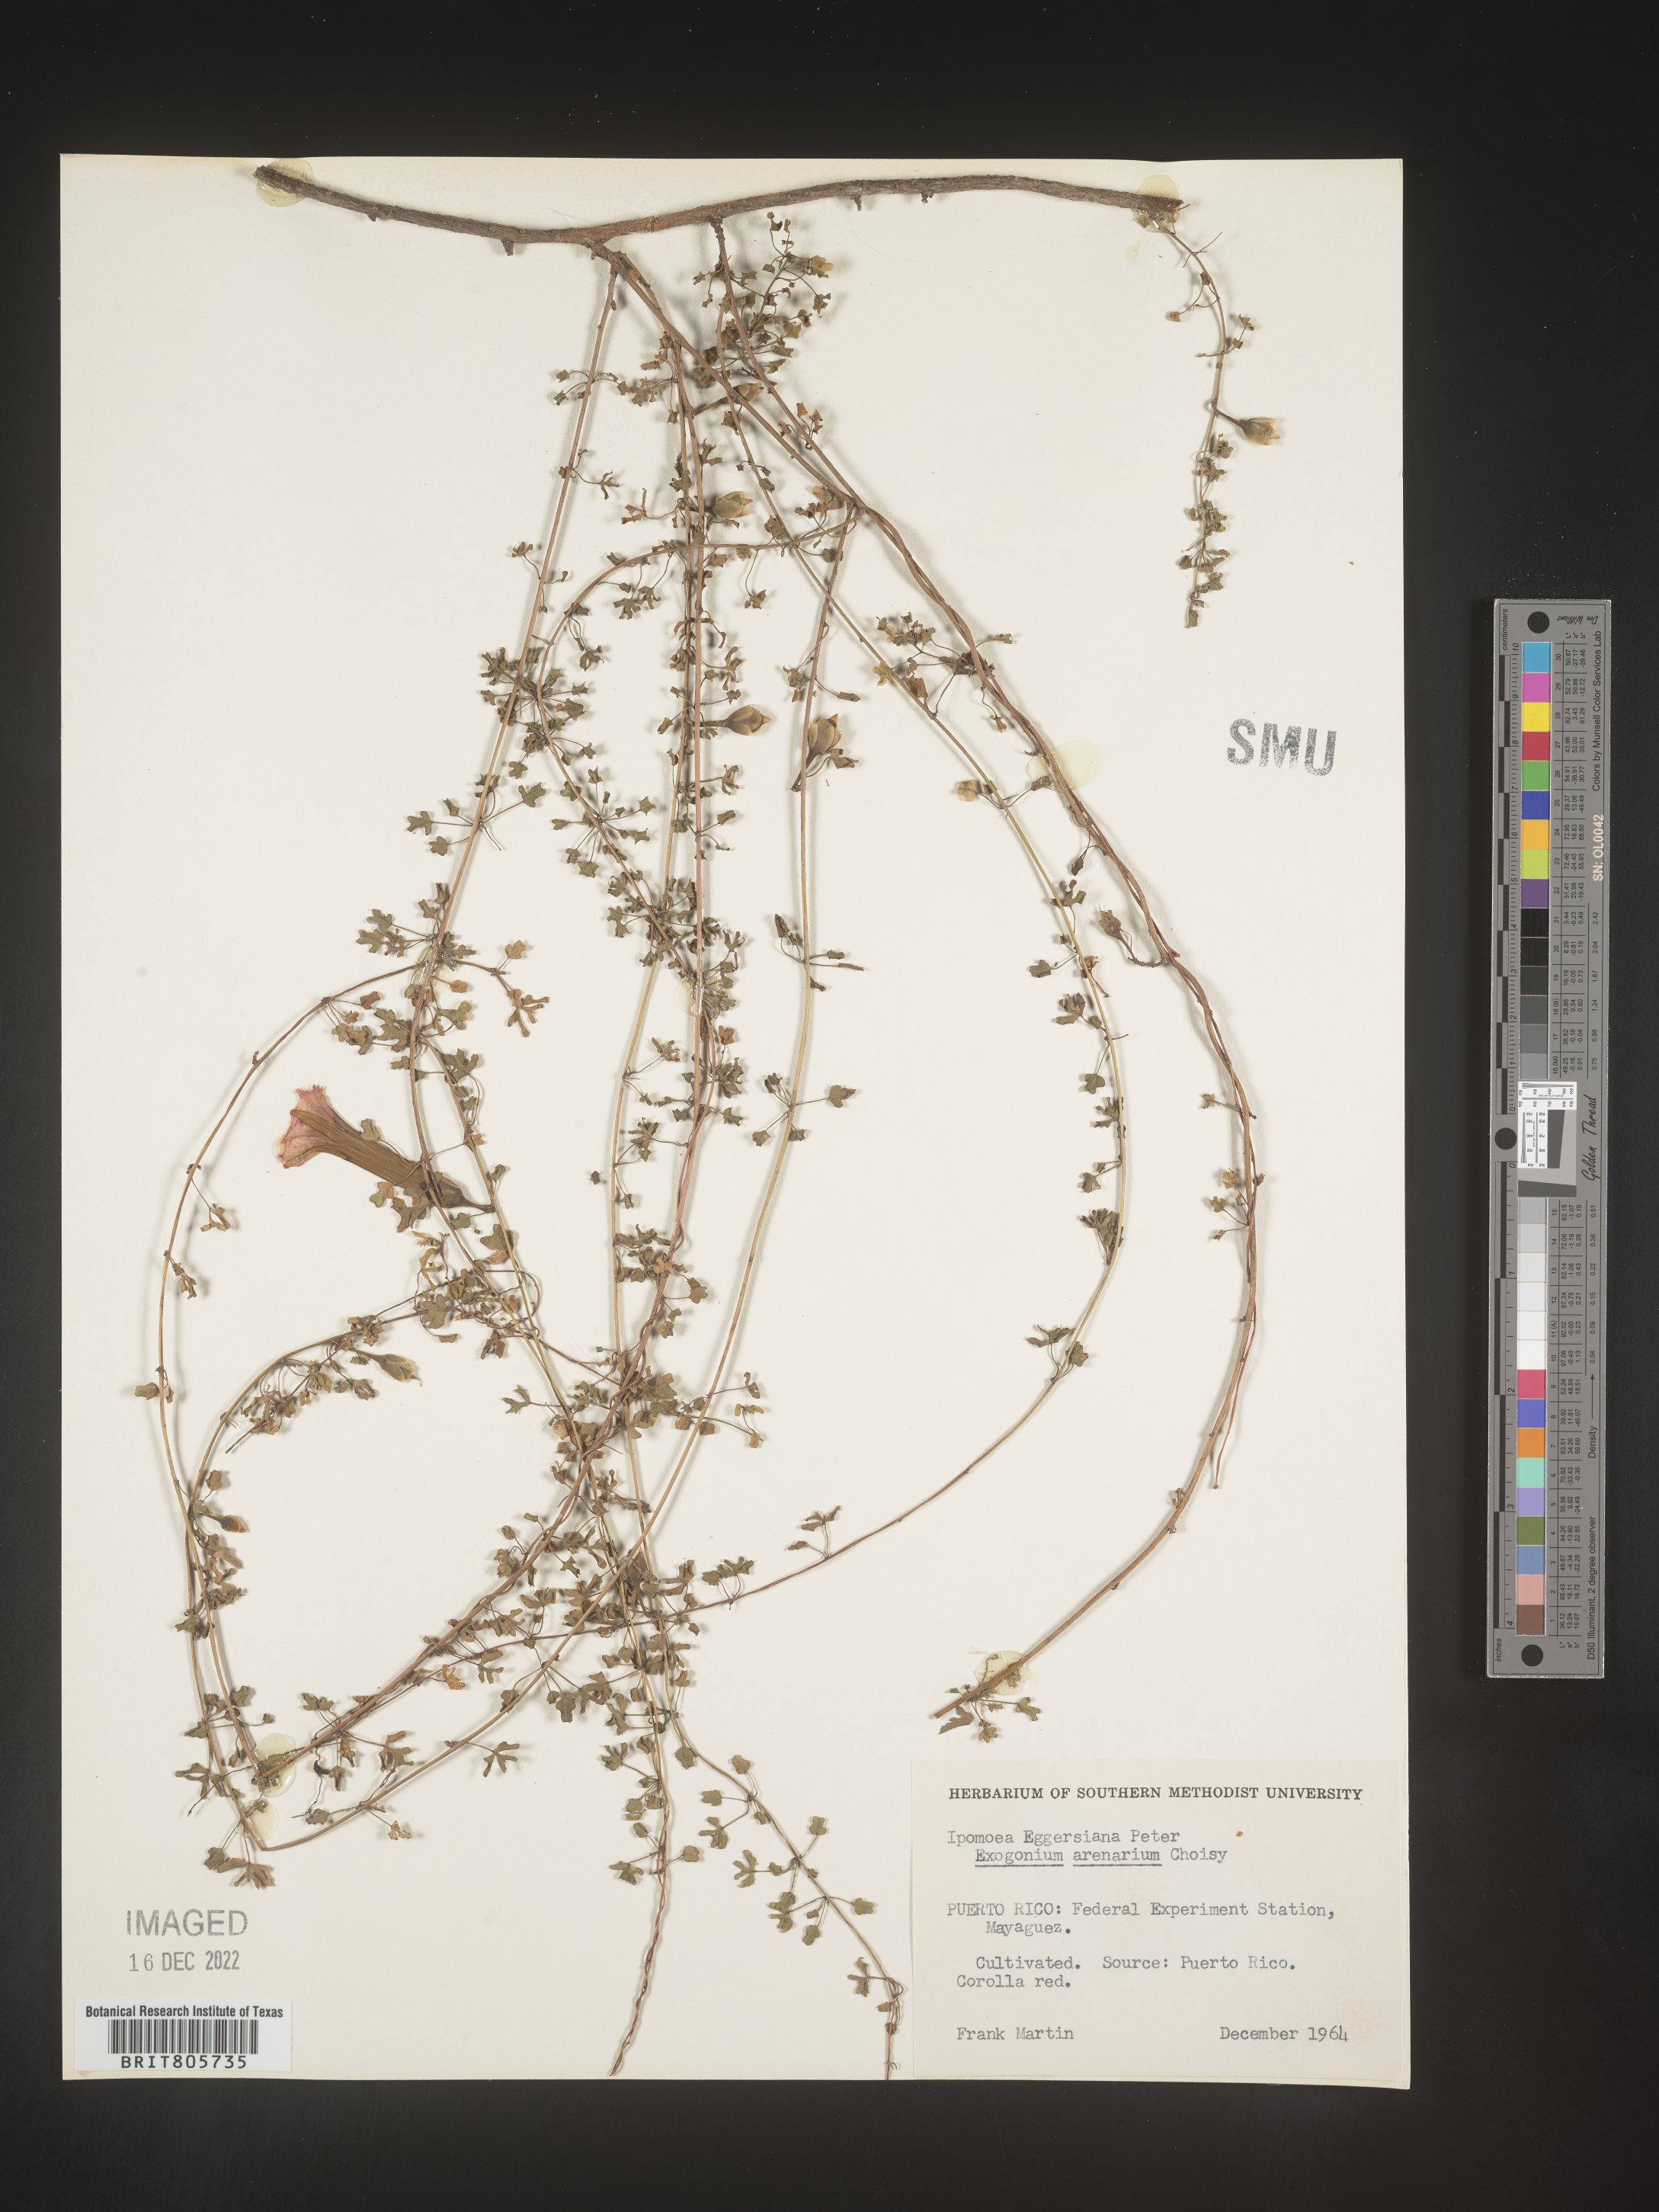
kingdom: Plantae
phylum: Tracheophyta
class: Magnoliopsida
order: Solanales
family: Convolvulaceae
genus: Ipomoea
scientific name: Ipomoea
